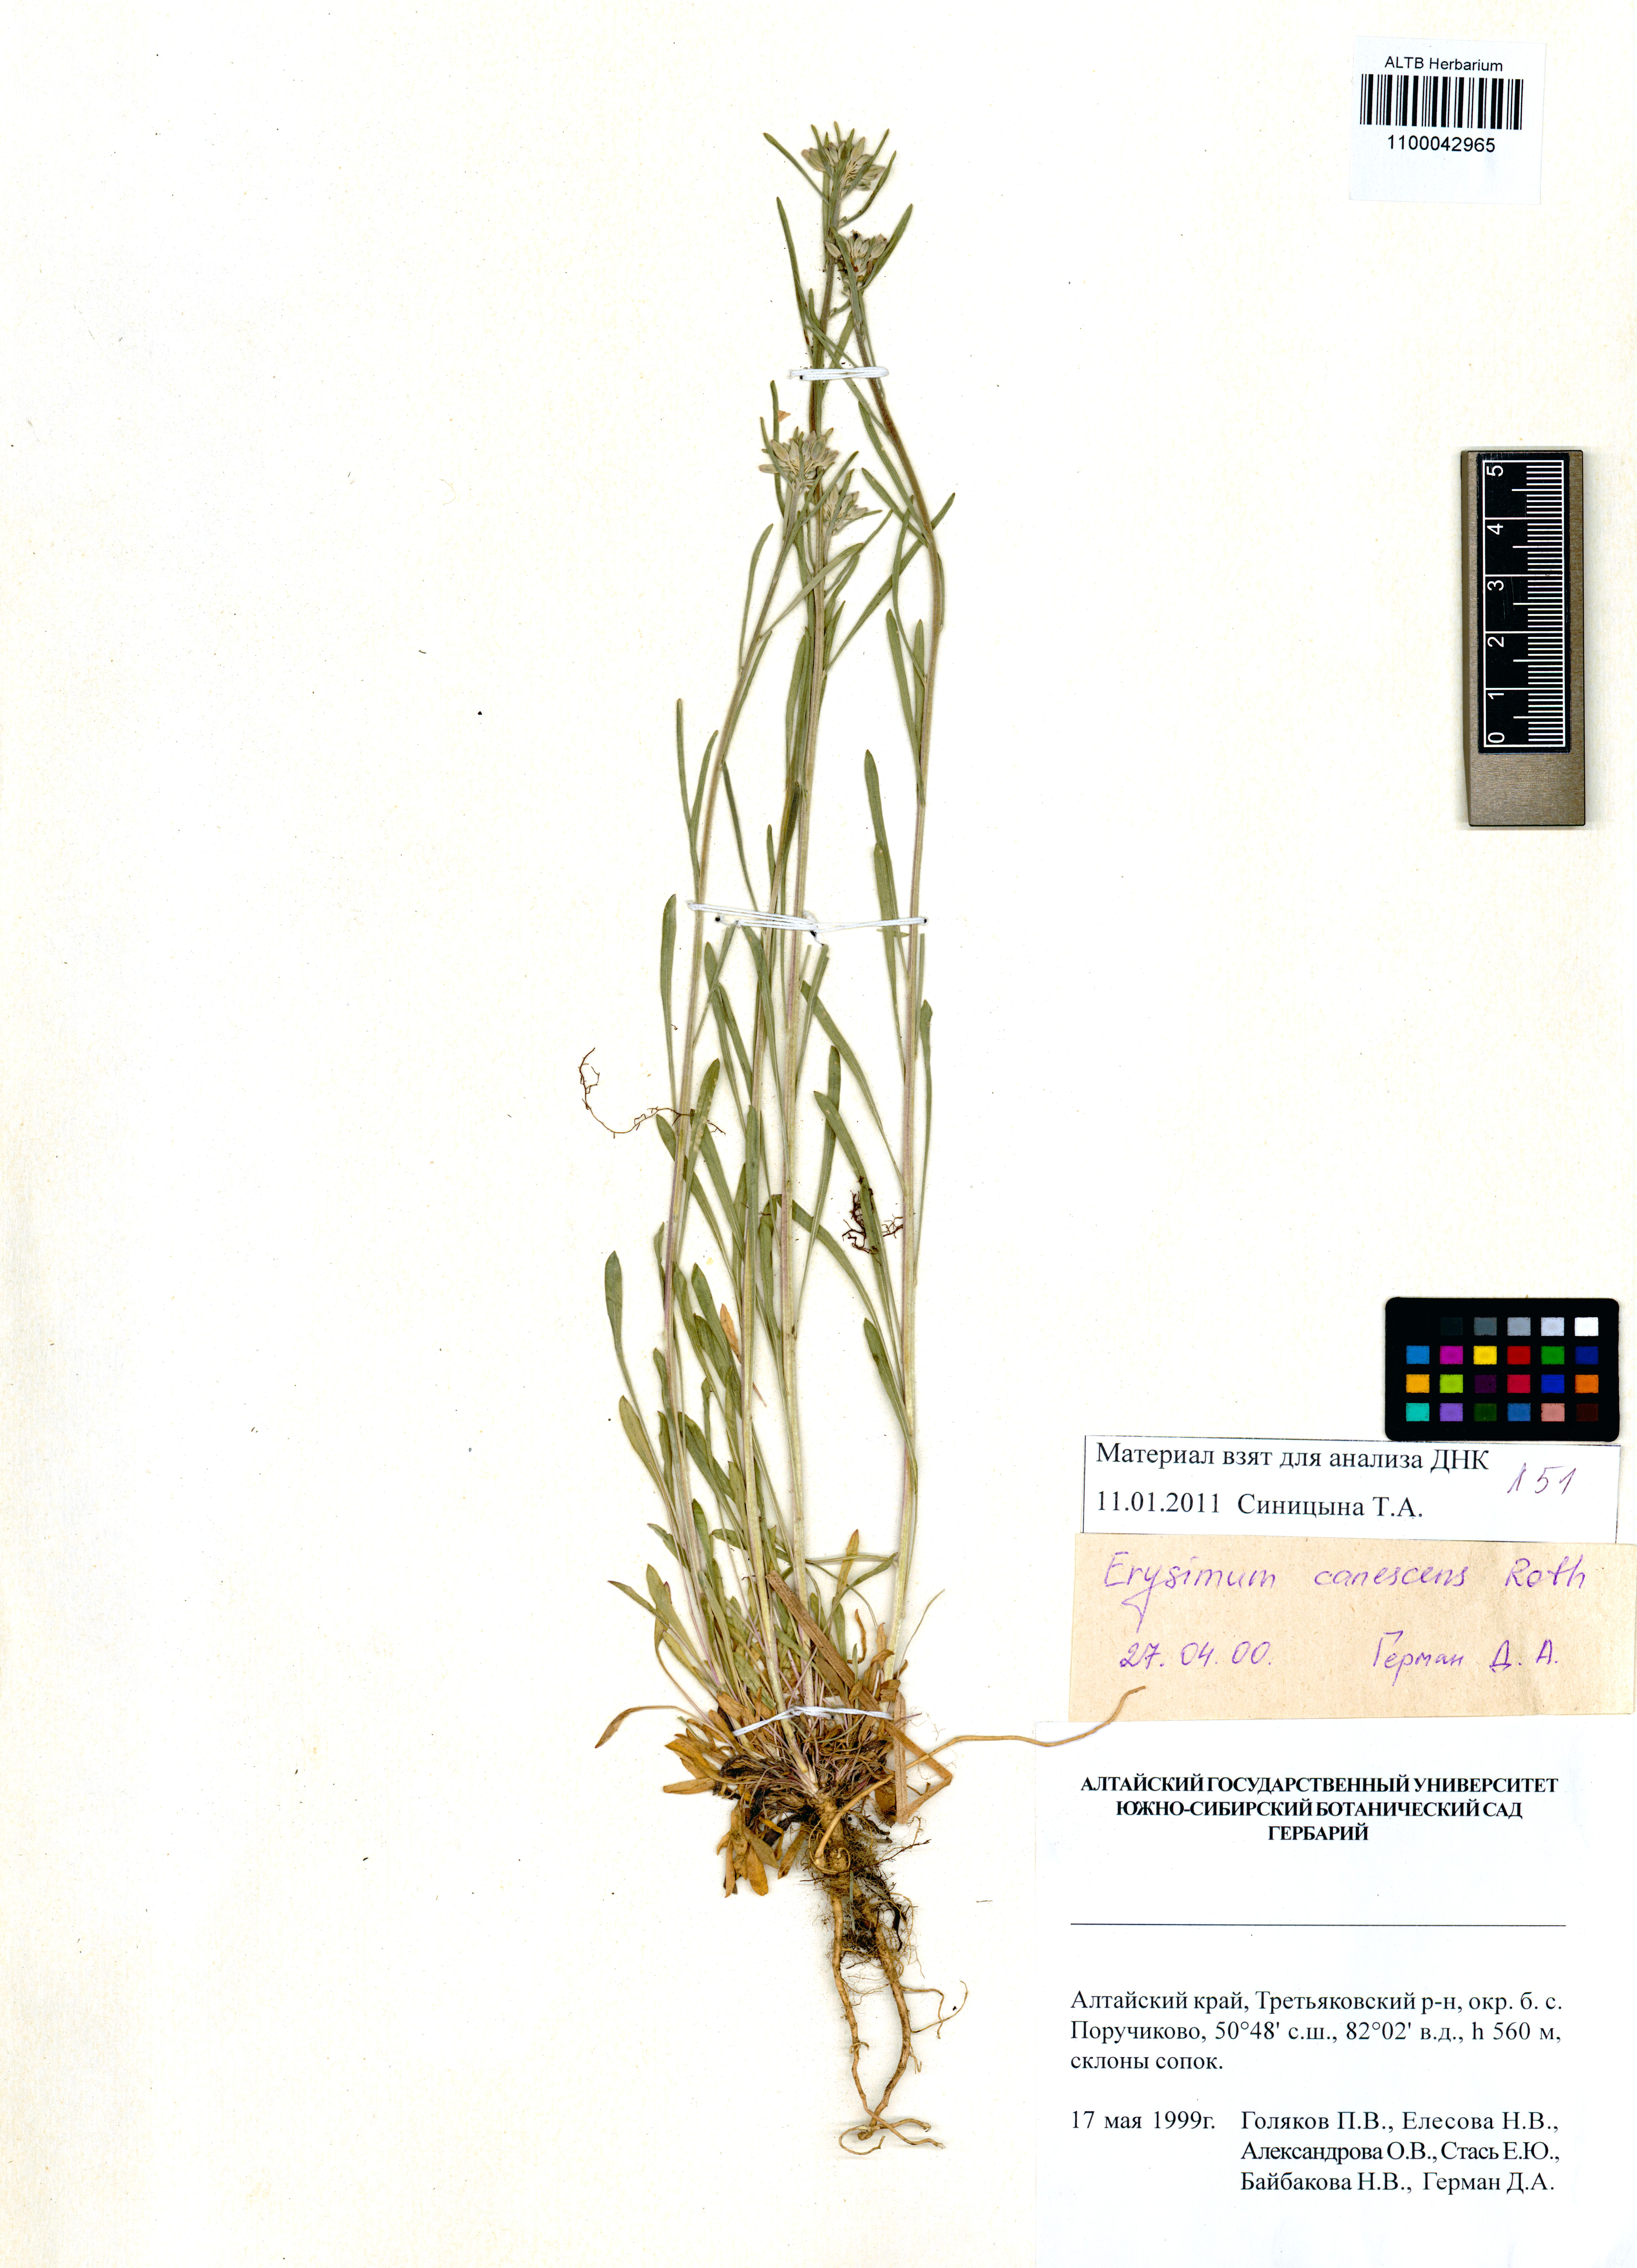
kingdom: Plantae
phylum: Tracheophyta
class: Magnoliopsida
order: Brassicales
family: Brassicaceae
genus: Erysimum
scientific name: Erysimum canescens
